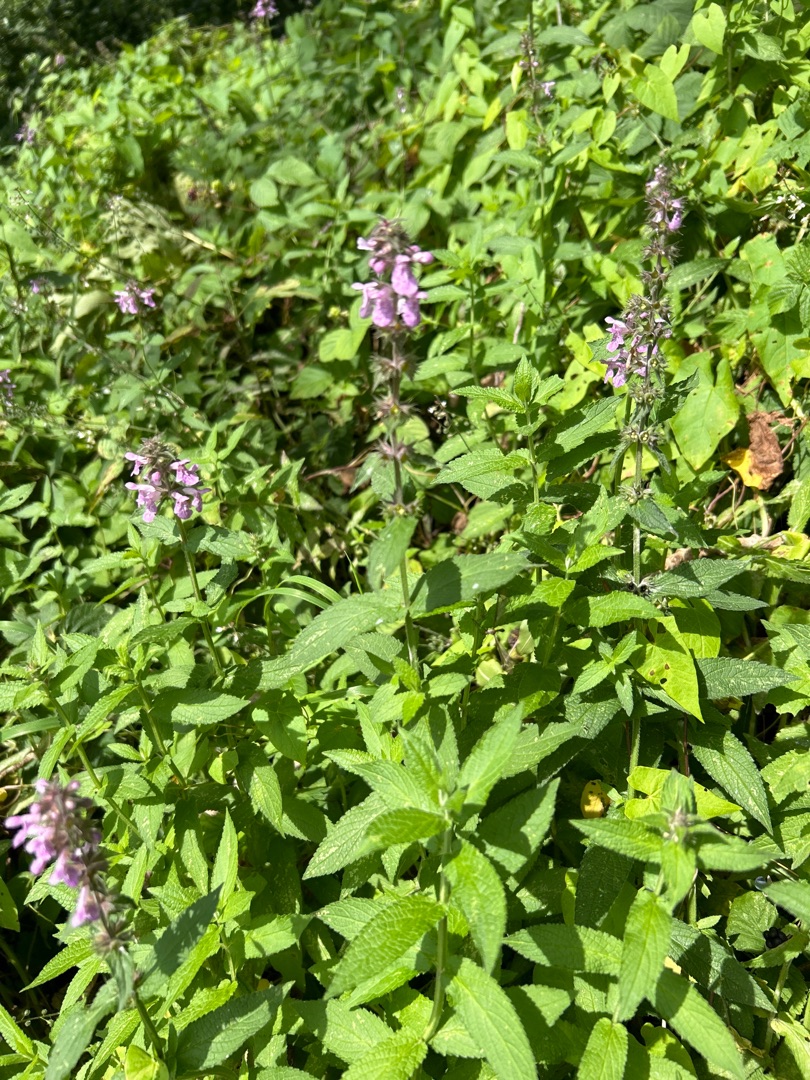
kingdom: Plantae
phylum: Tracheophyta
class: Magnoliopsida
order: Lamiales
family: Lamiaceae
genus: Stachys
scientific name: Stachys palustris
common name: Kær-galtetand
